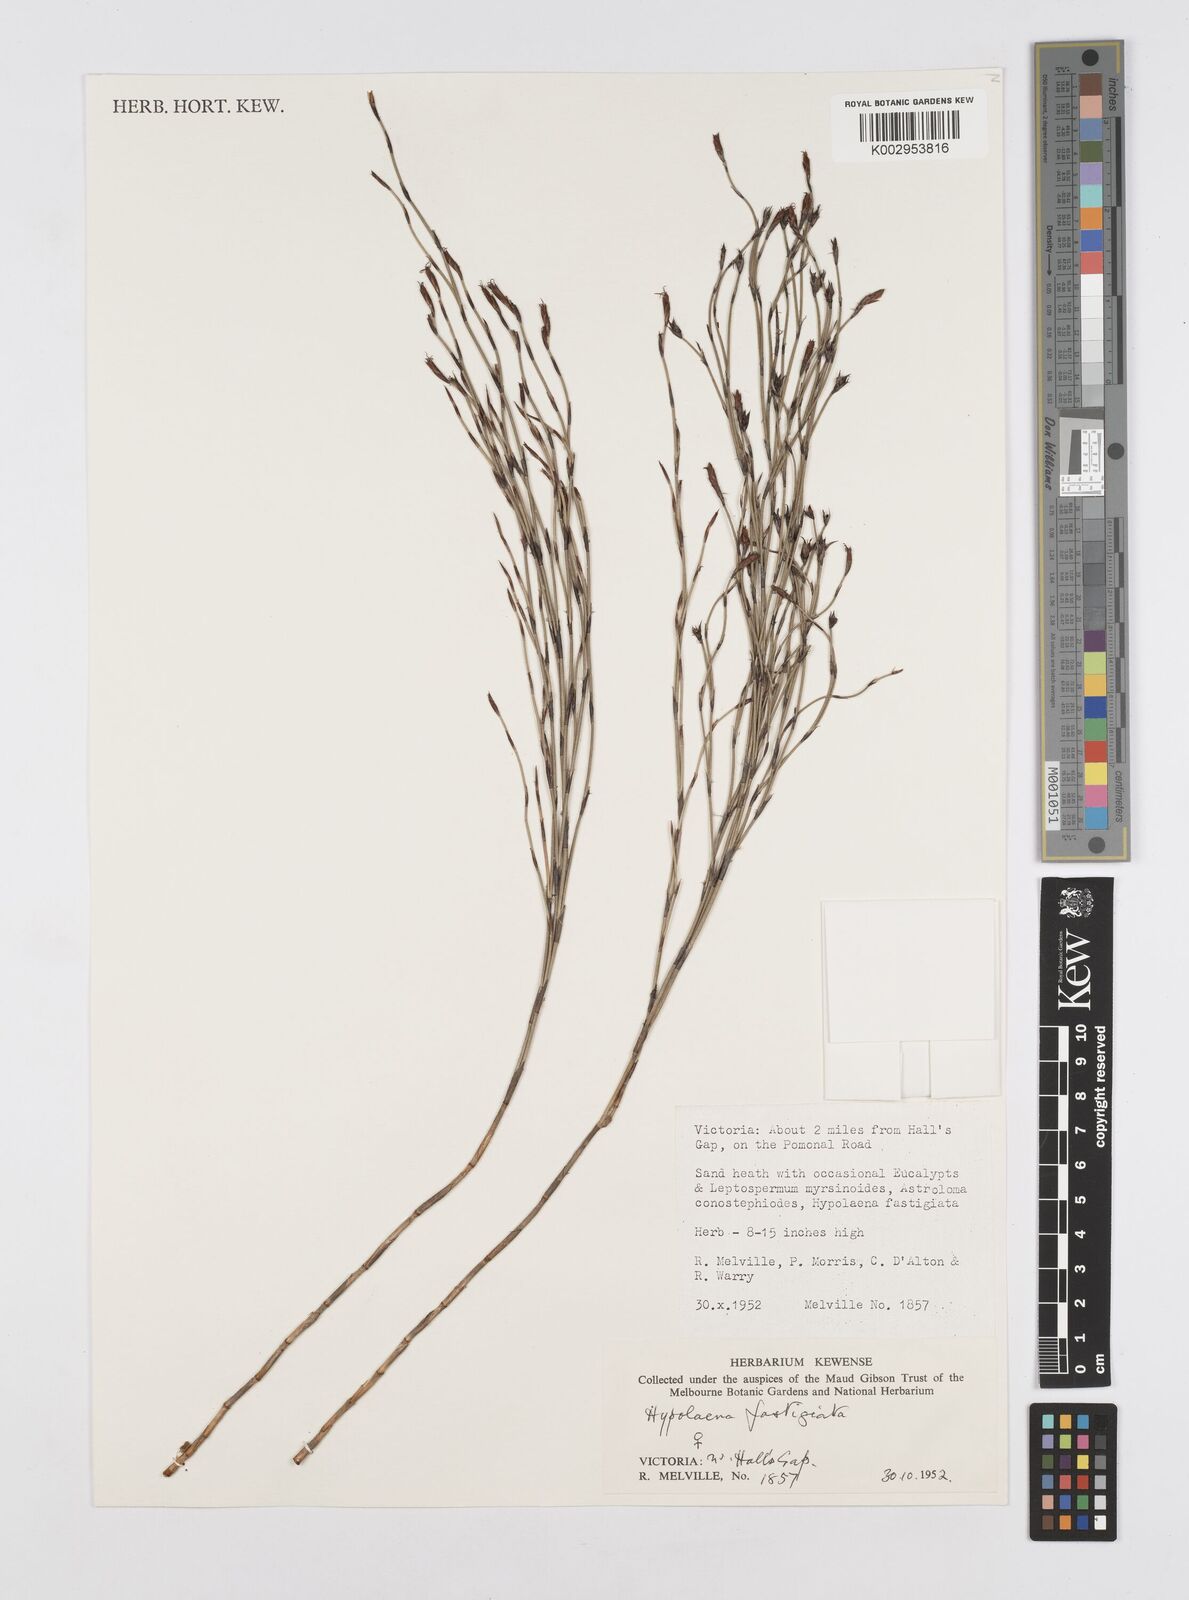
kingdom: Plantae
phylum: Tracheophyta
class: Liliopsida
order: Poales
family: Restionaceae
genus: Hypolaena
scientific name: Hypolaena fastigiata
